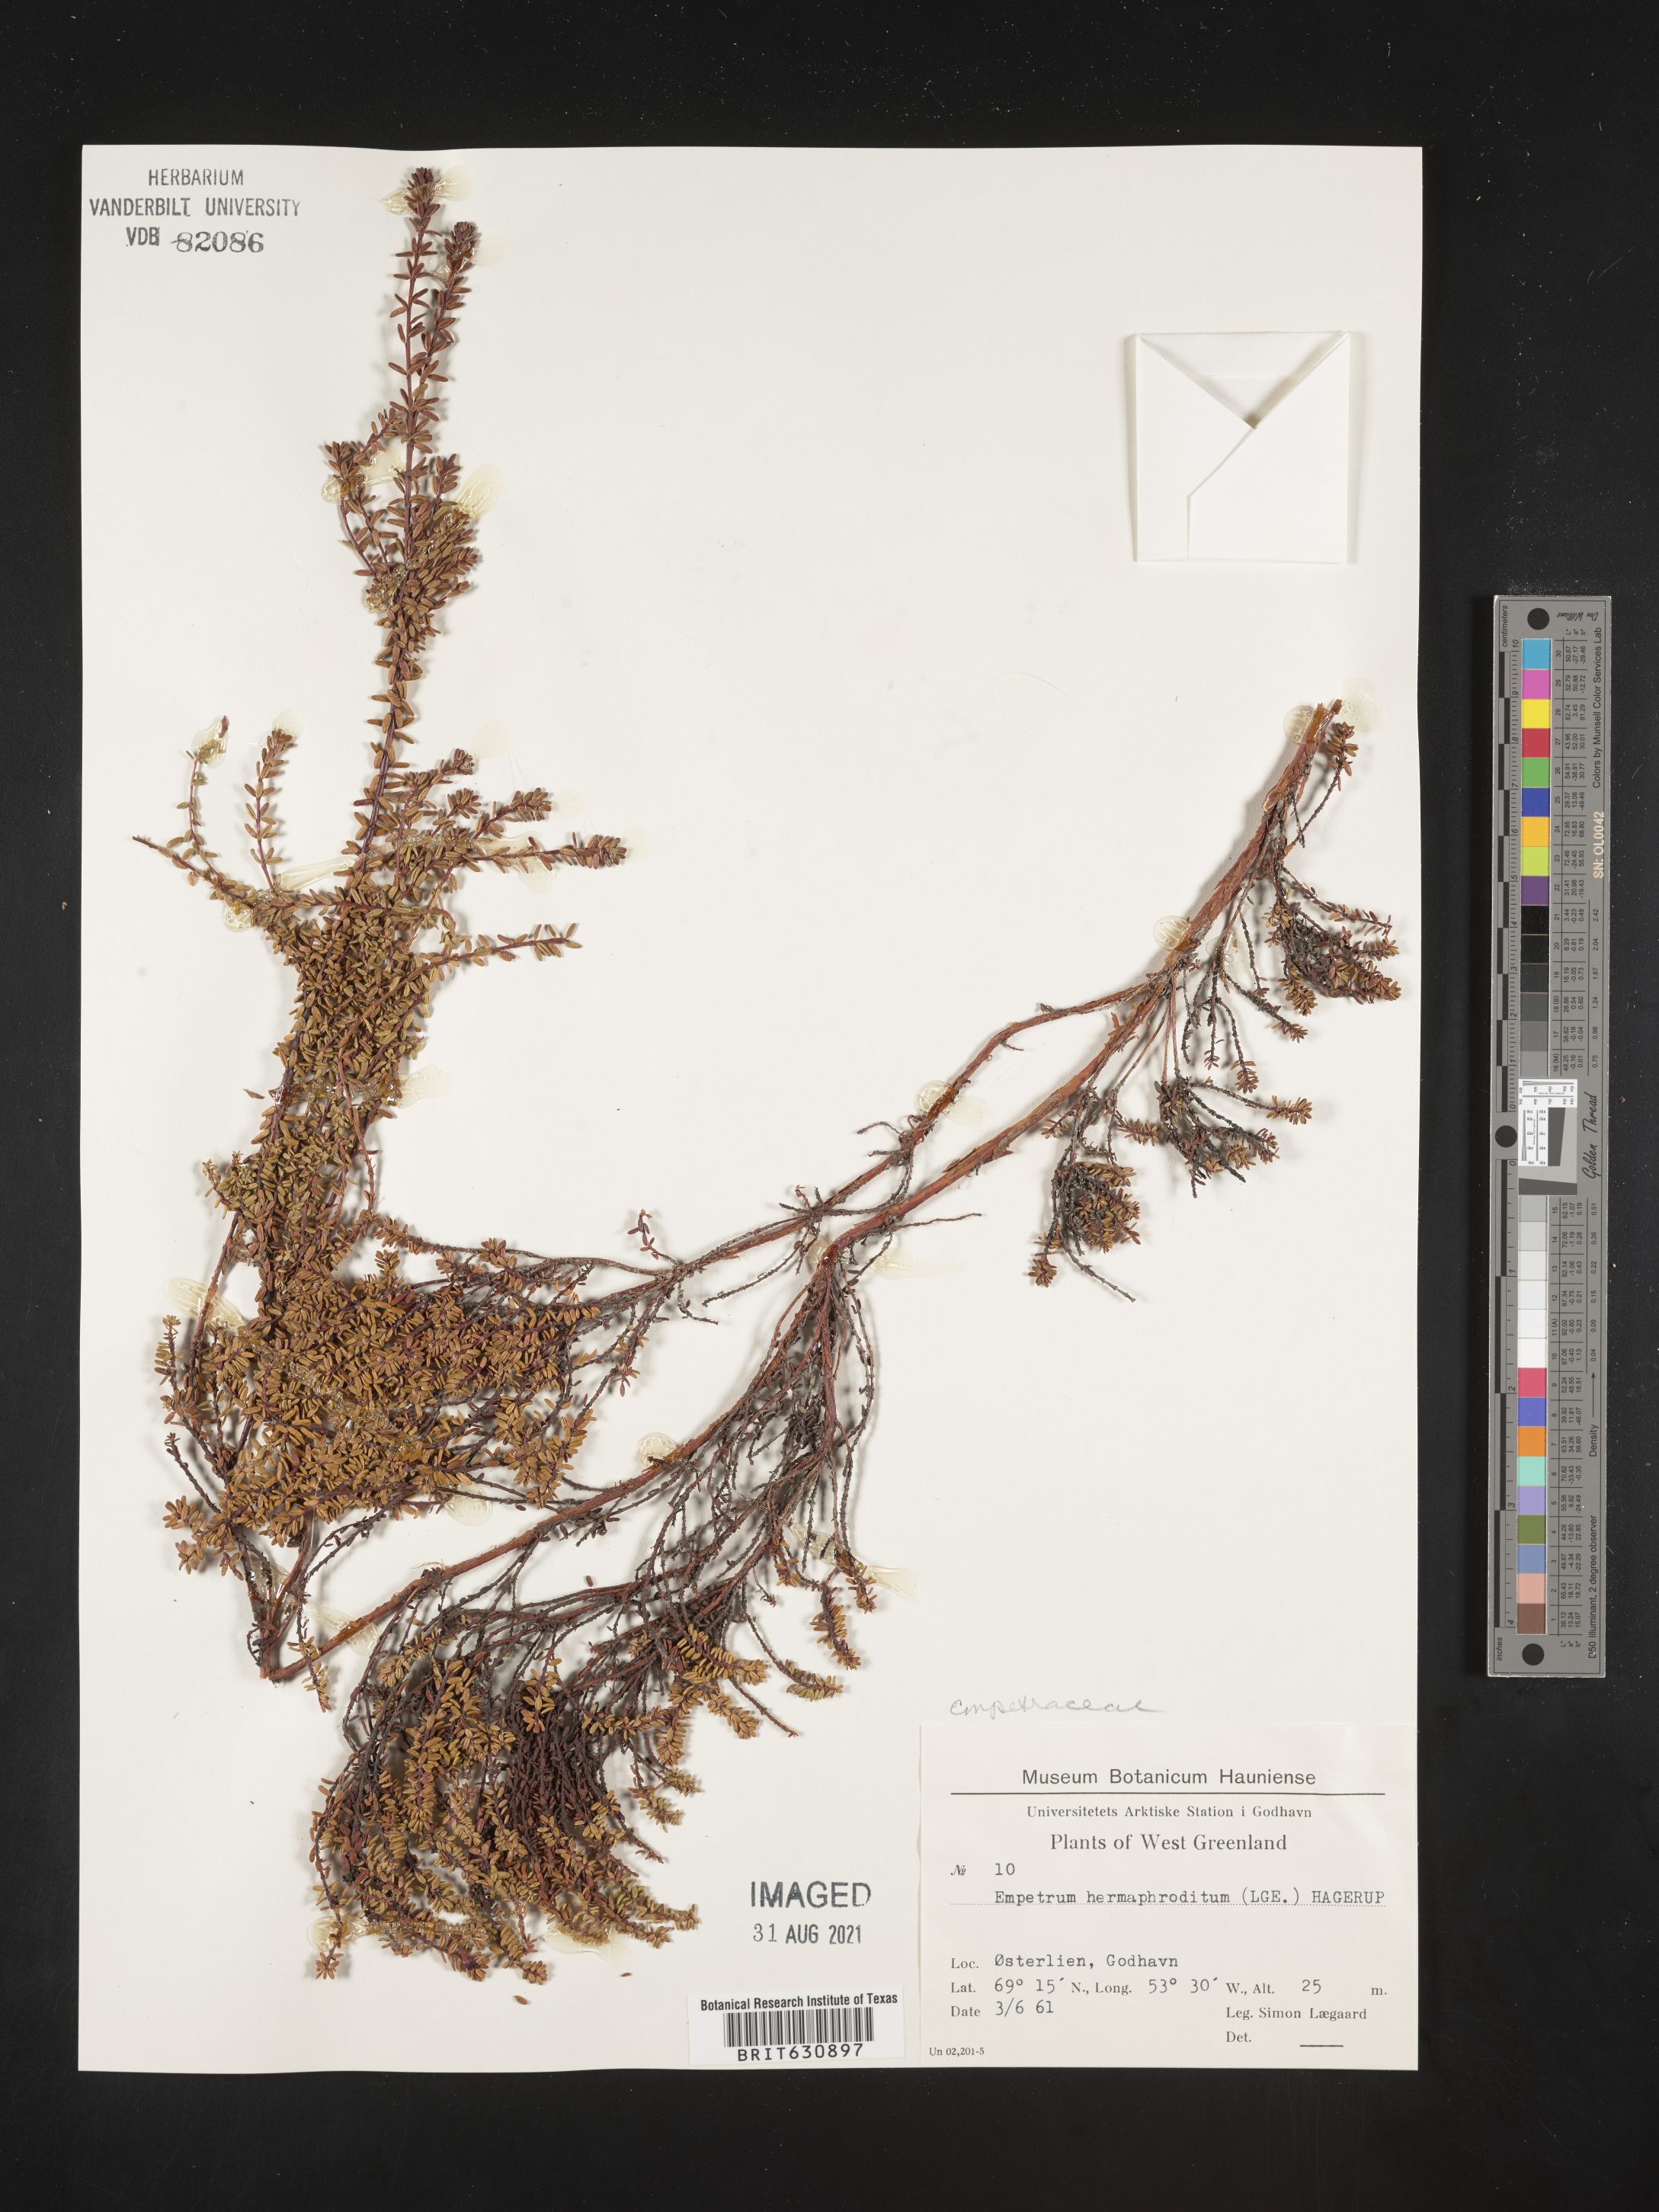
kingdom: Plantae
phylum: Tracheophyta
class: Magnoliopsida
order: Ericales
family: Ericaceae
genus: Empetrum
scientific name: Empetrum
